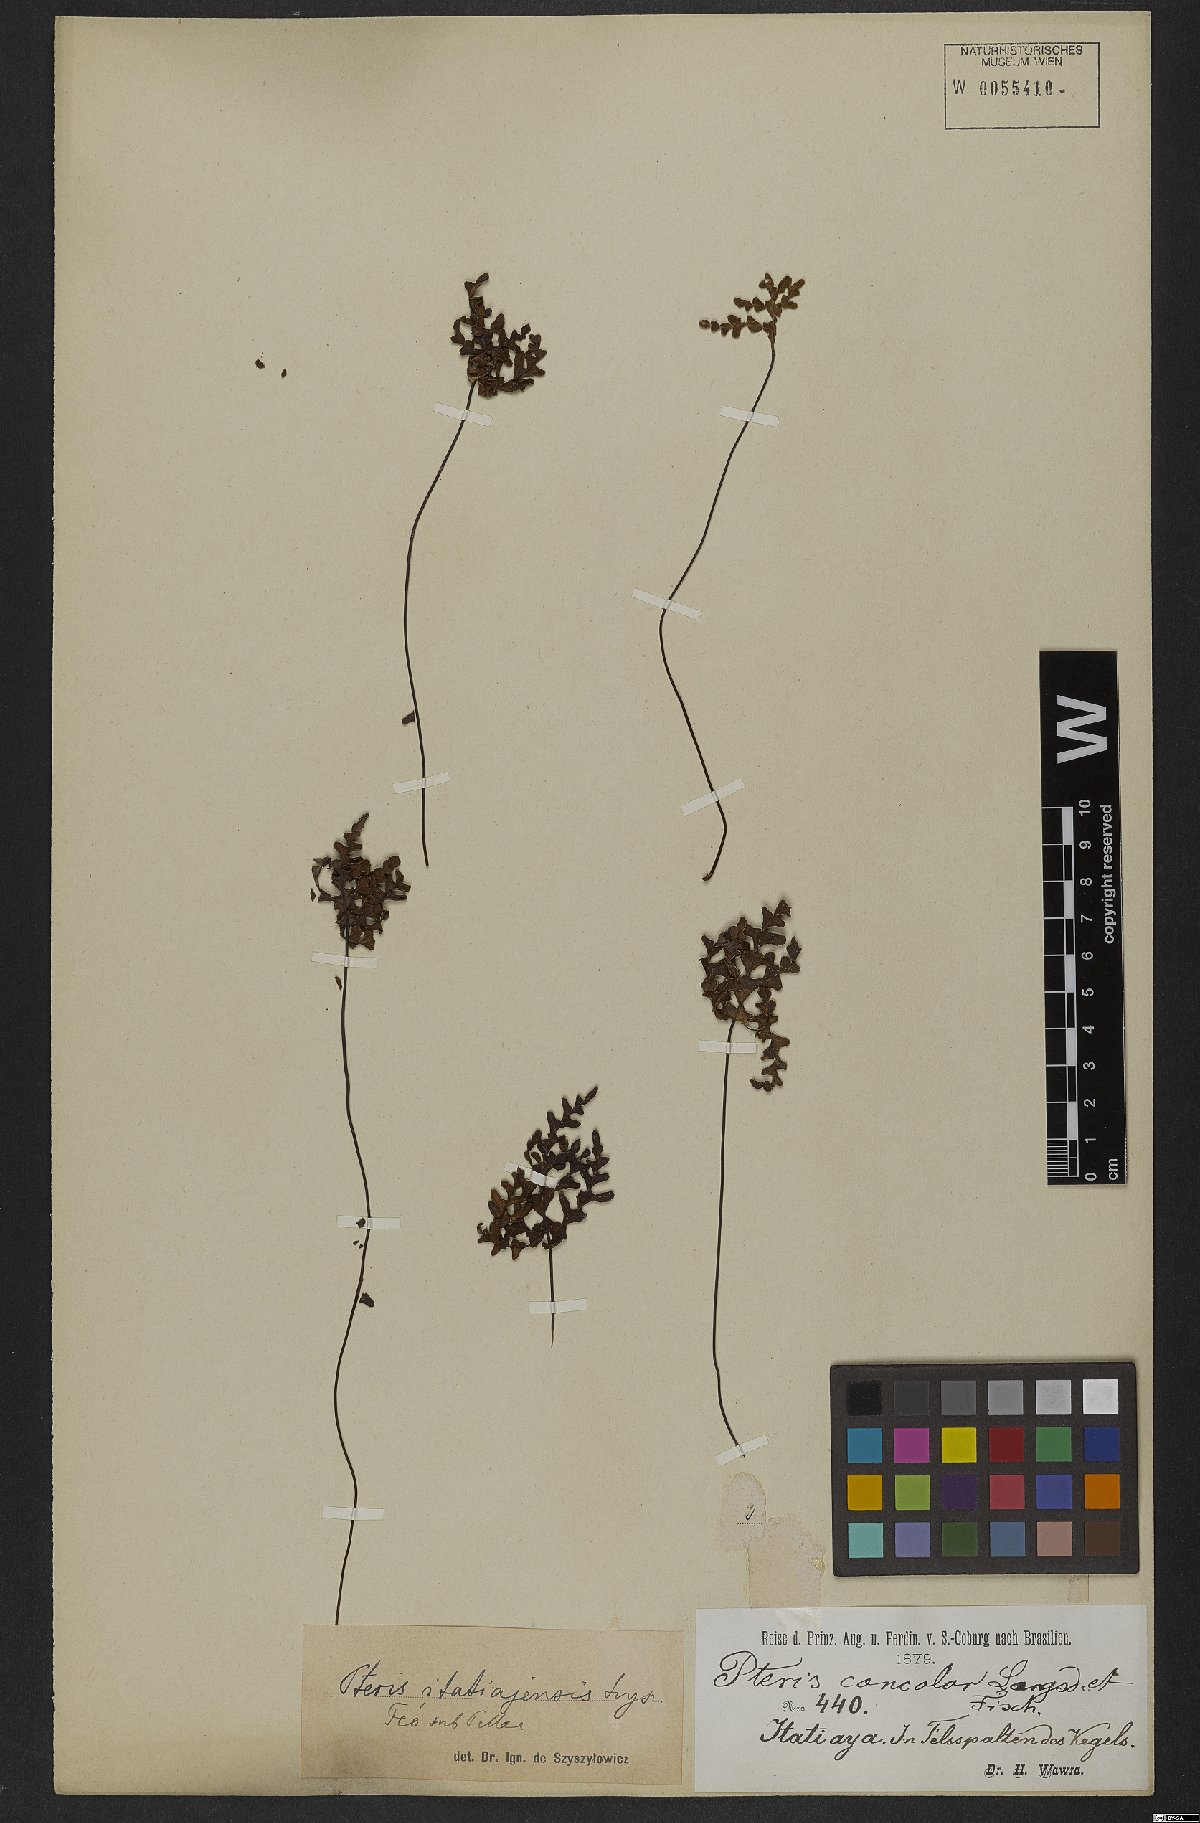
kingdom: Plantae
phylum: Tracheophyta
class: Polypodiopsida
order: Polypodiales
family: Pteridaceae
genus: Lytoneuron
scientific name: Lytoneuron lomariaceum
